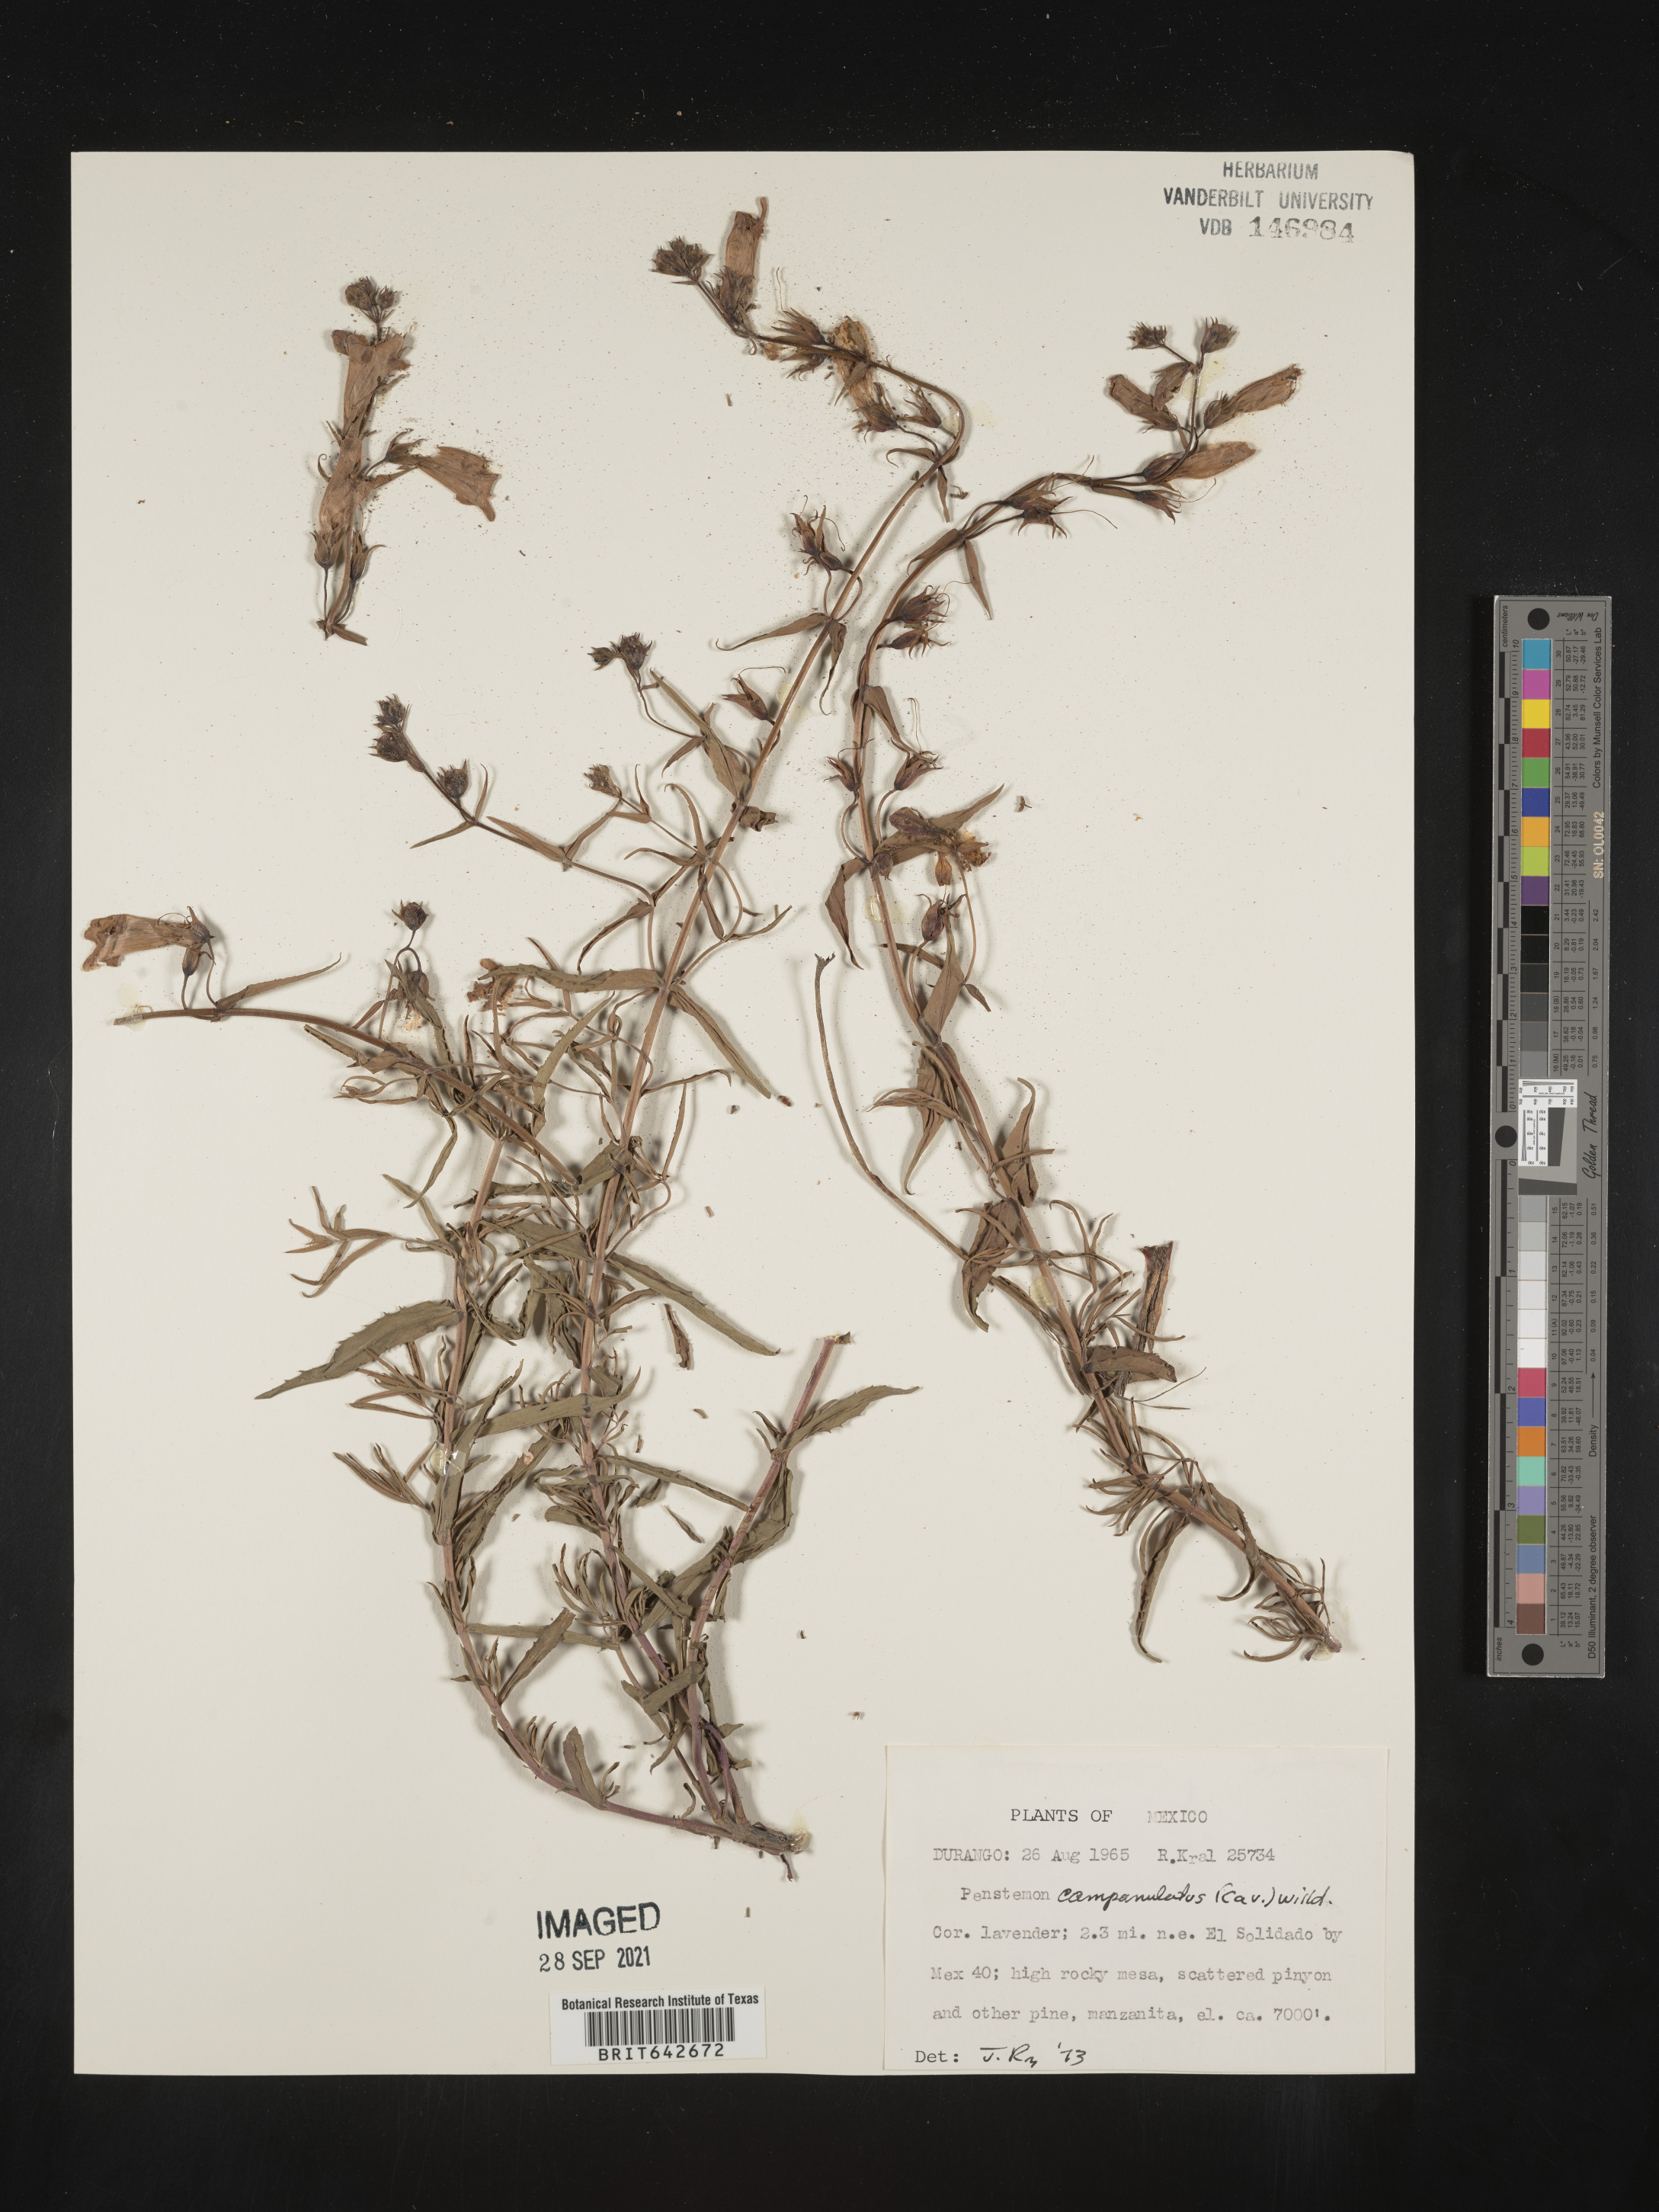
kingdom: Plantae
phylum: Tracheophyta
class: Magnoliopsida
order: Lamiales
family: Plantaginaceae
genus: Penstemon
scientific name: Penstemon
